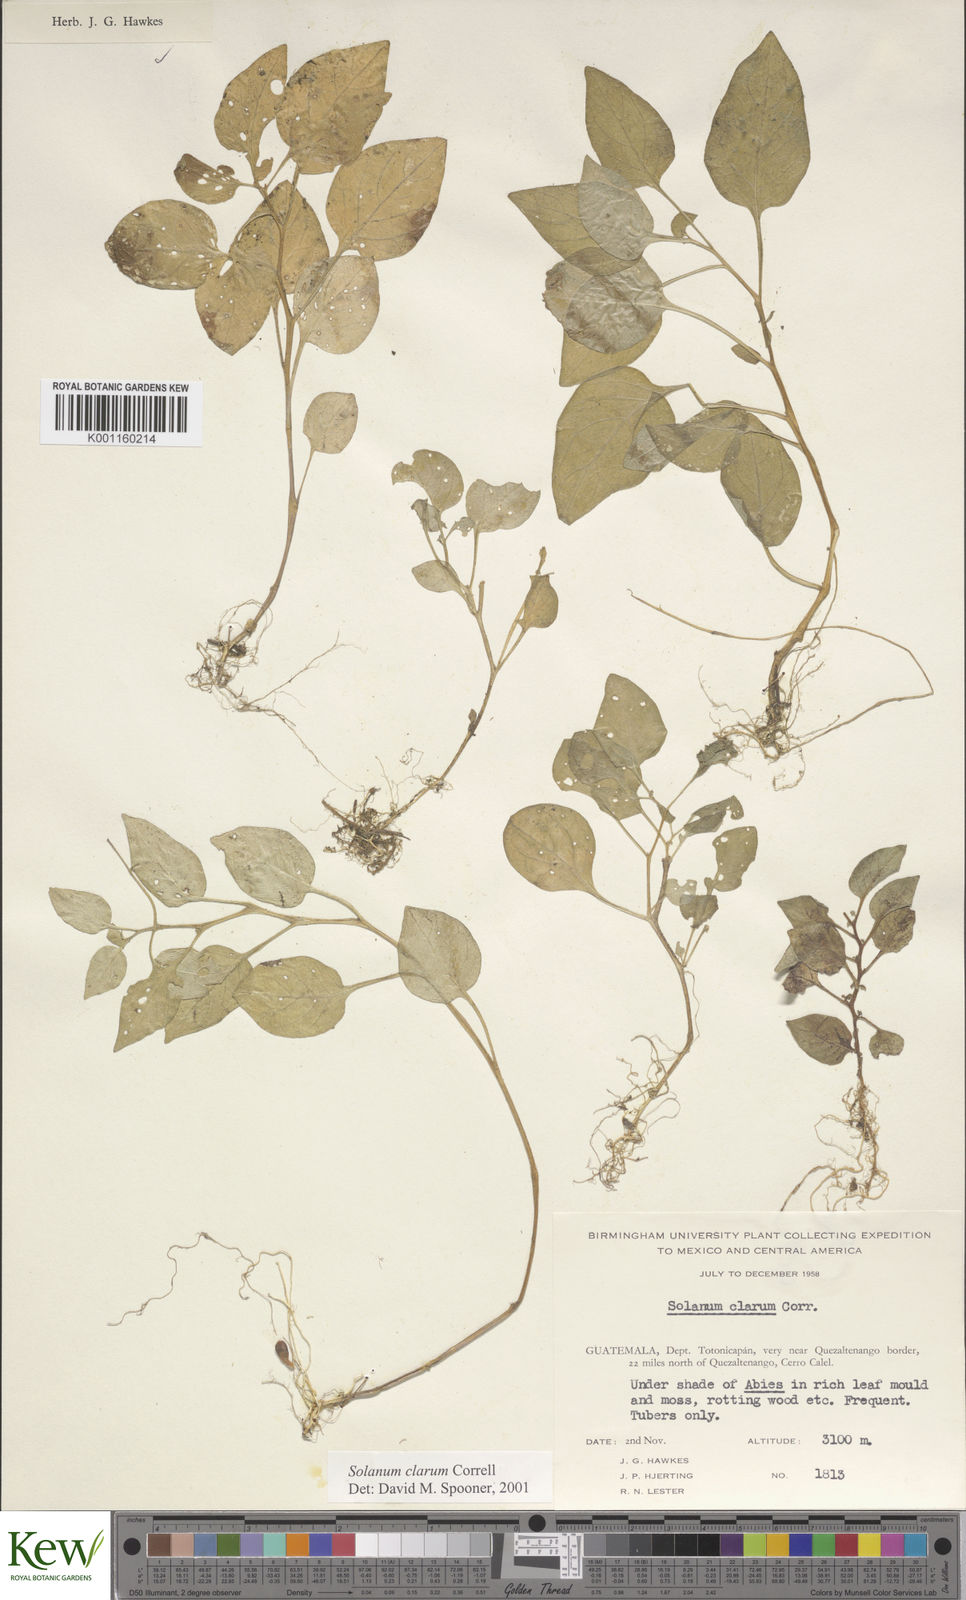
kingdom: Plantae
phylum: Tracheophyta
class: Magnoliopsida
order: Solanales
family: Solanaceae
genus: Solanum
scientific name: Solanum clarum
